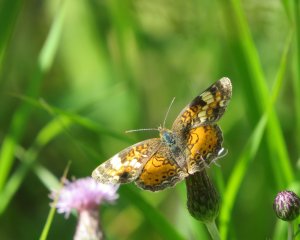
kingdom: Animalia
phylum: Arthropoda
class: Insecta
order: Lepidoptera
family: Nymphalidae
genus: Phyciodes
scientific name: Phyciodes tharos
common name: Northern Crescent
